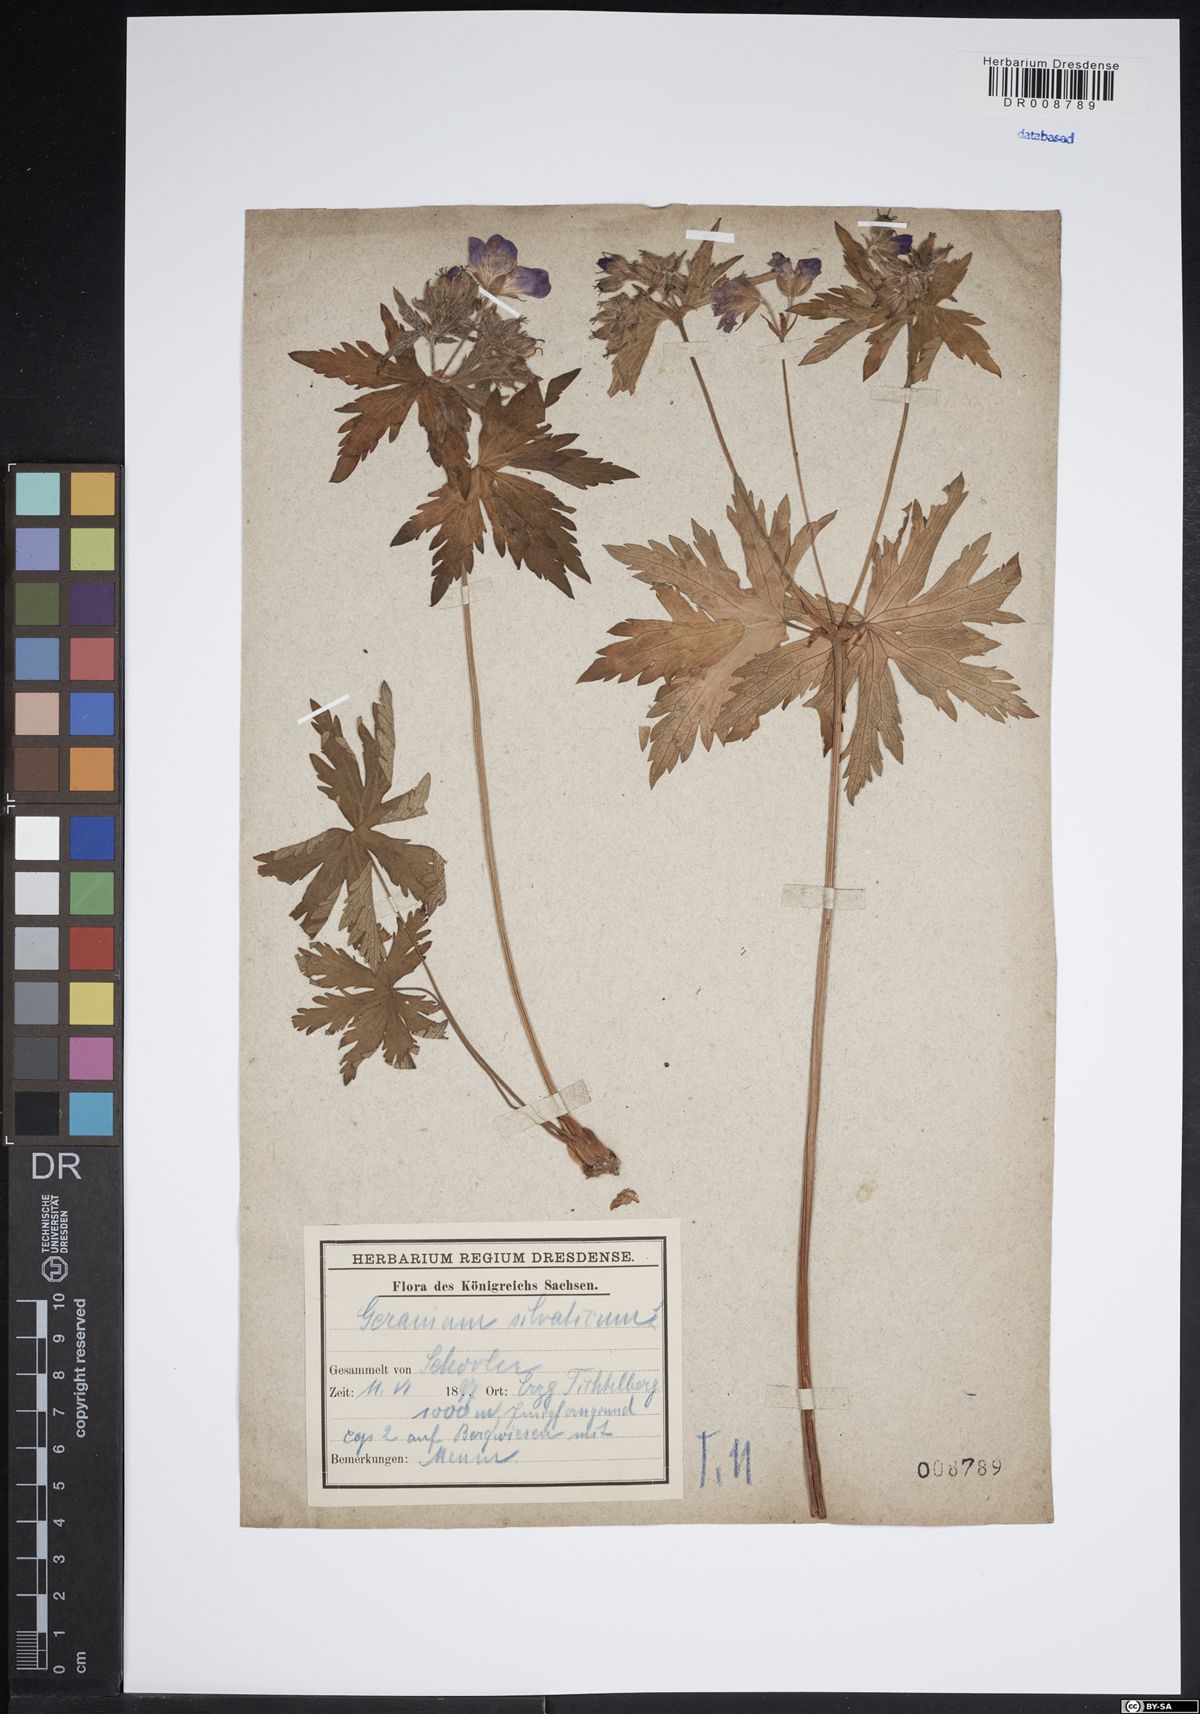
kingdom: Plantae
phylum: Tracheophyta
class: Magnoliopsida
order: Geraniales
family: Geraniaceae
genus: Geranium
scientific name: Geranium sylvaticum
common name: Wood crane's-bill
